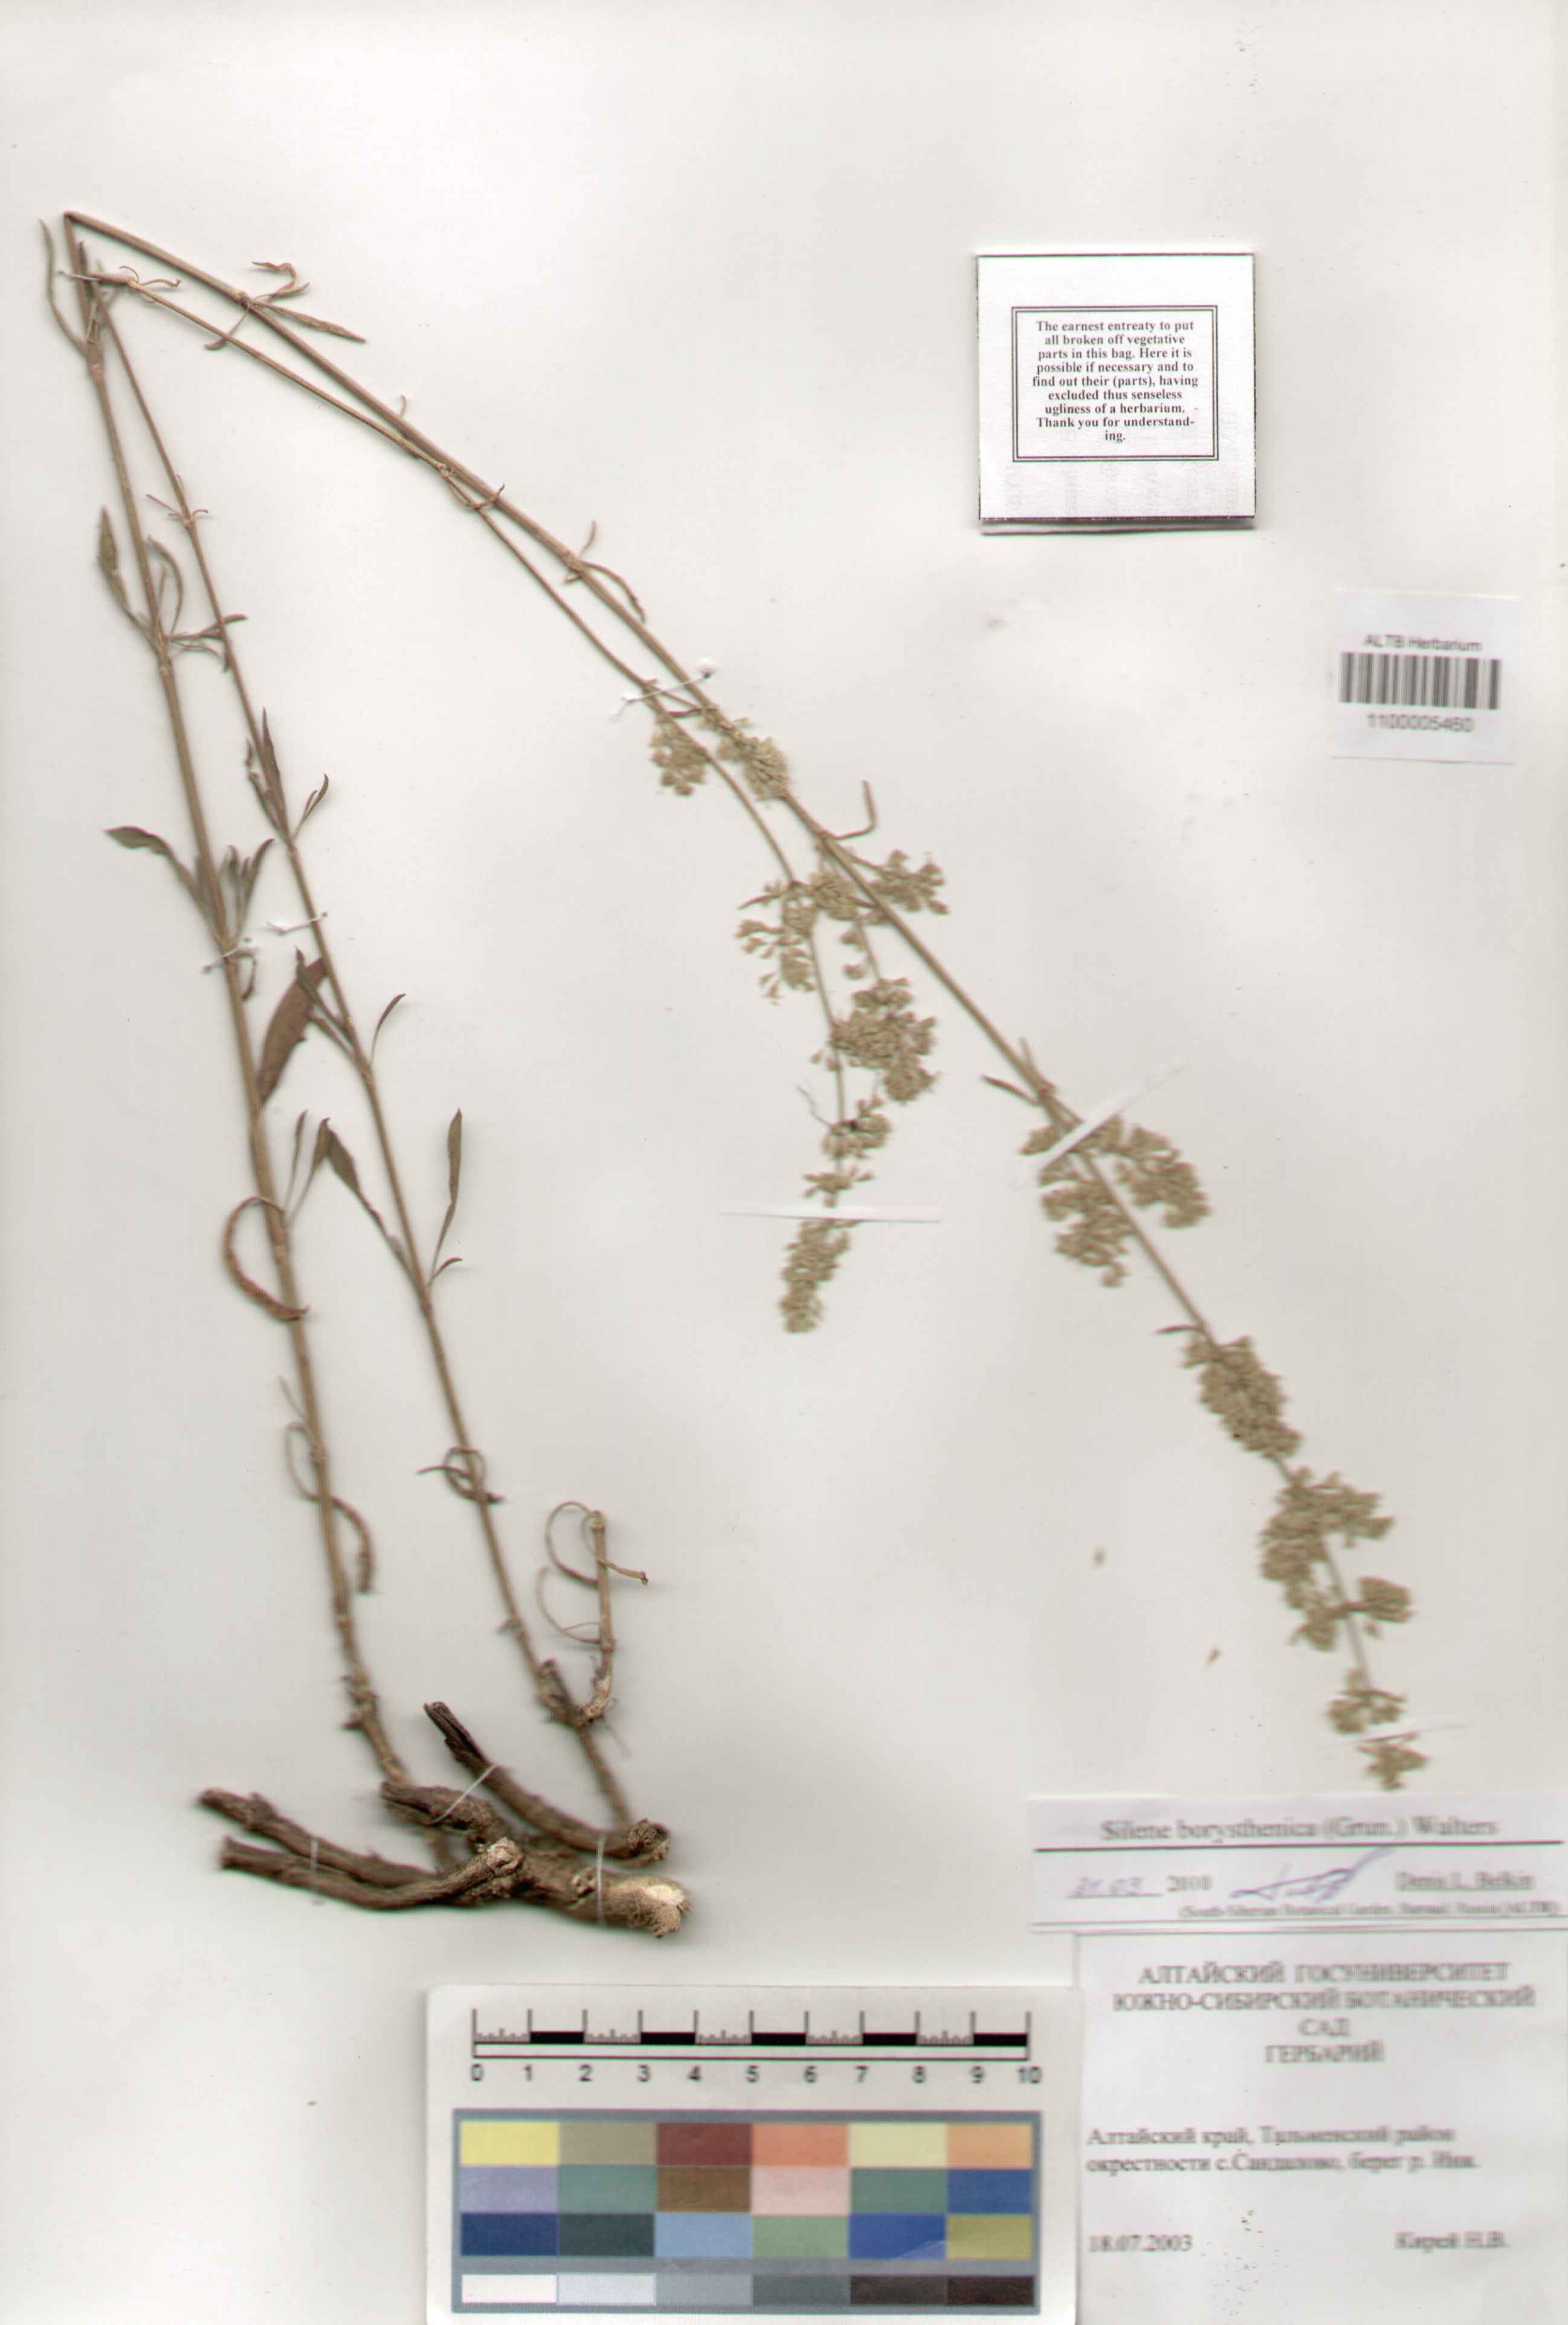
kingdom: Plantae
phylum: Tracheophyta
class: Magnoliopsida
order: Caryophyllales
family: Caryophyllaceae
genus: Silene
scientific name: Silene borysthenica
